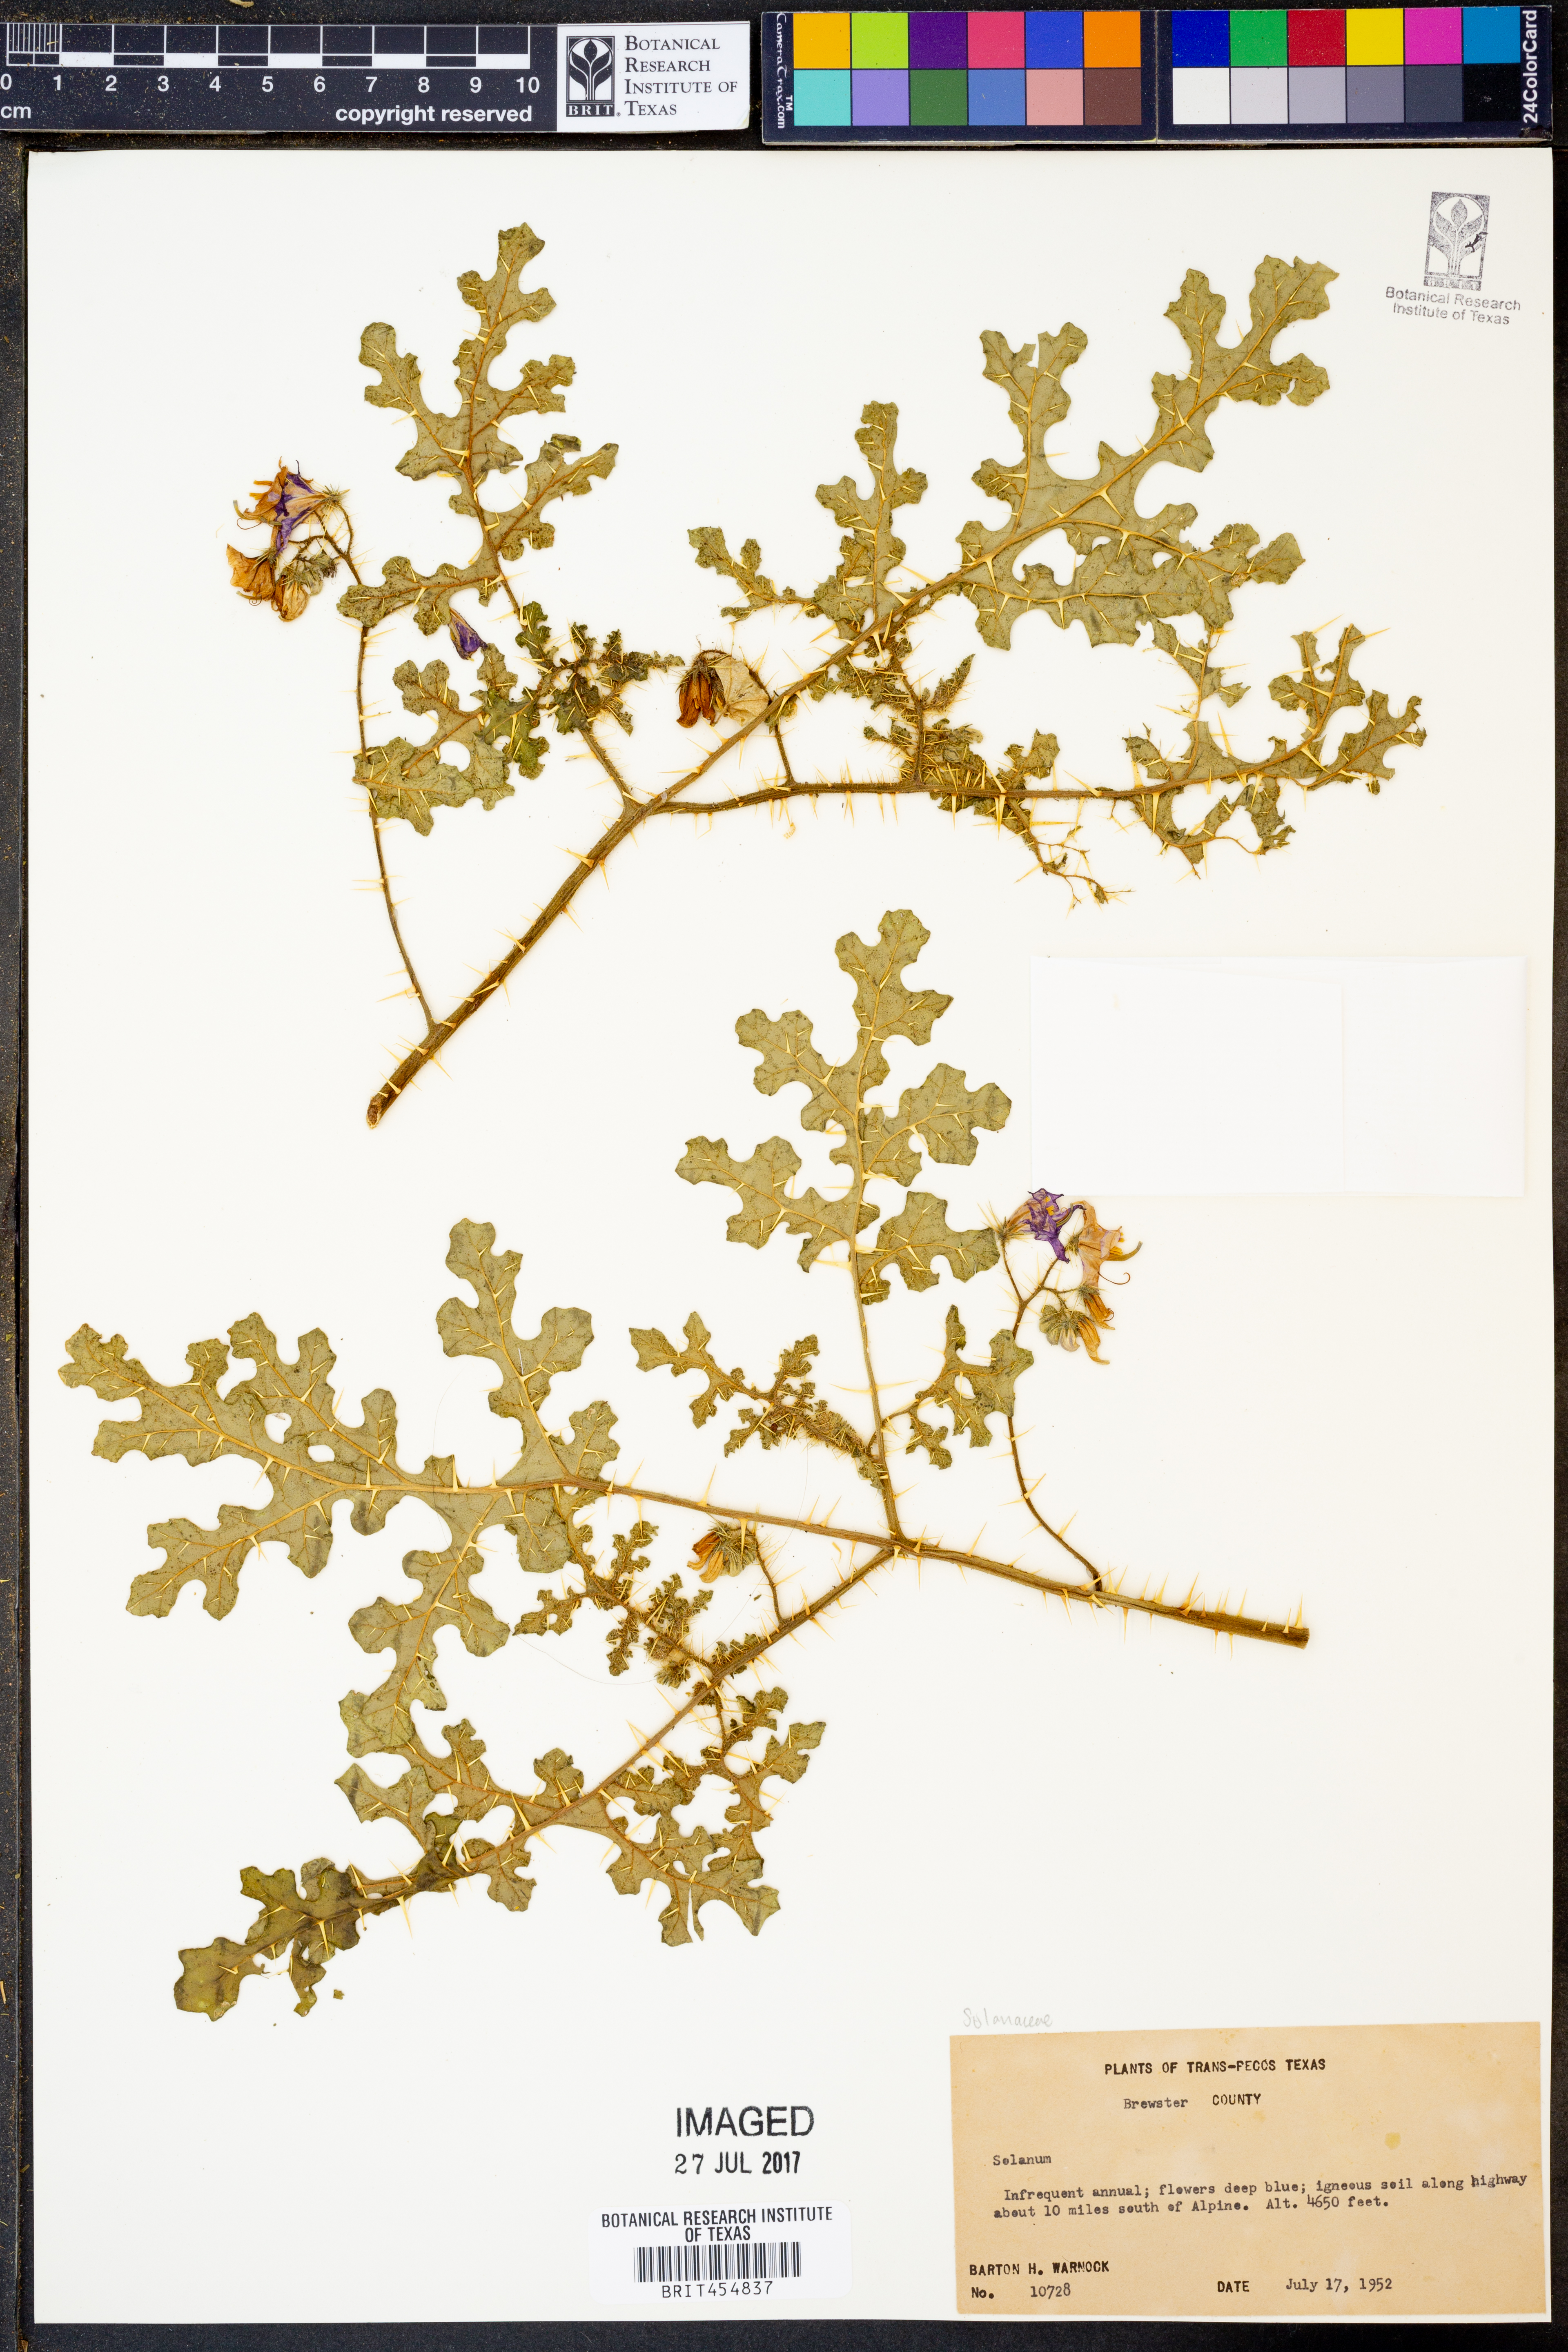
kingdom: Plantae
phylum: Tracheophyta
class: Magnoliopsida
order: Solanales
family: Solanaceae
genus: Solanum
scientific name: Solanum
